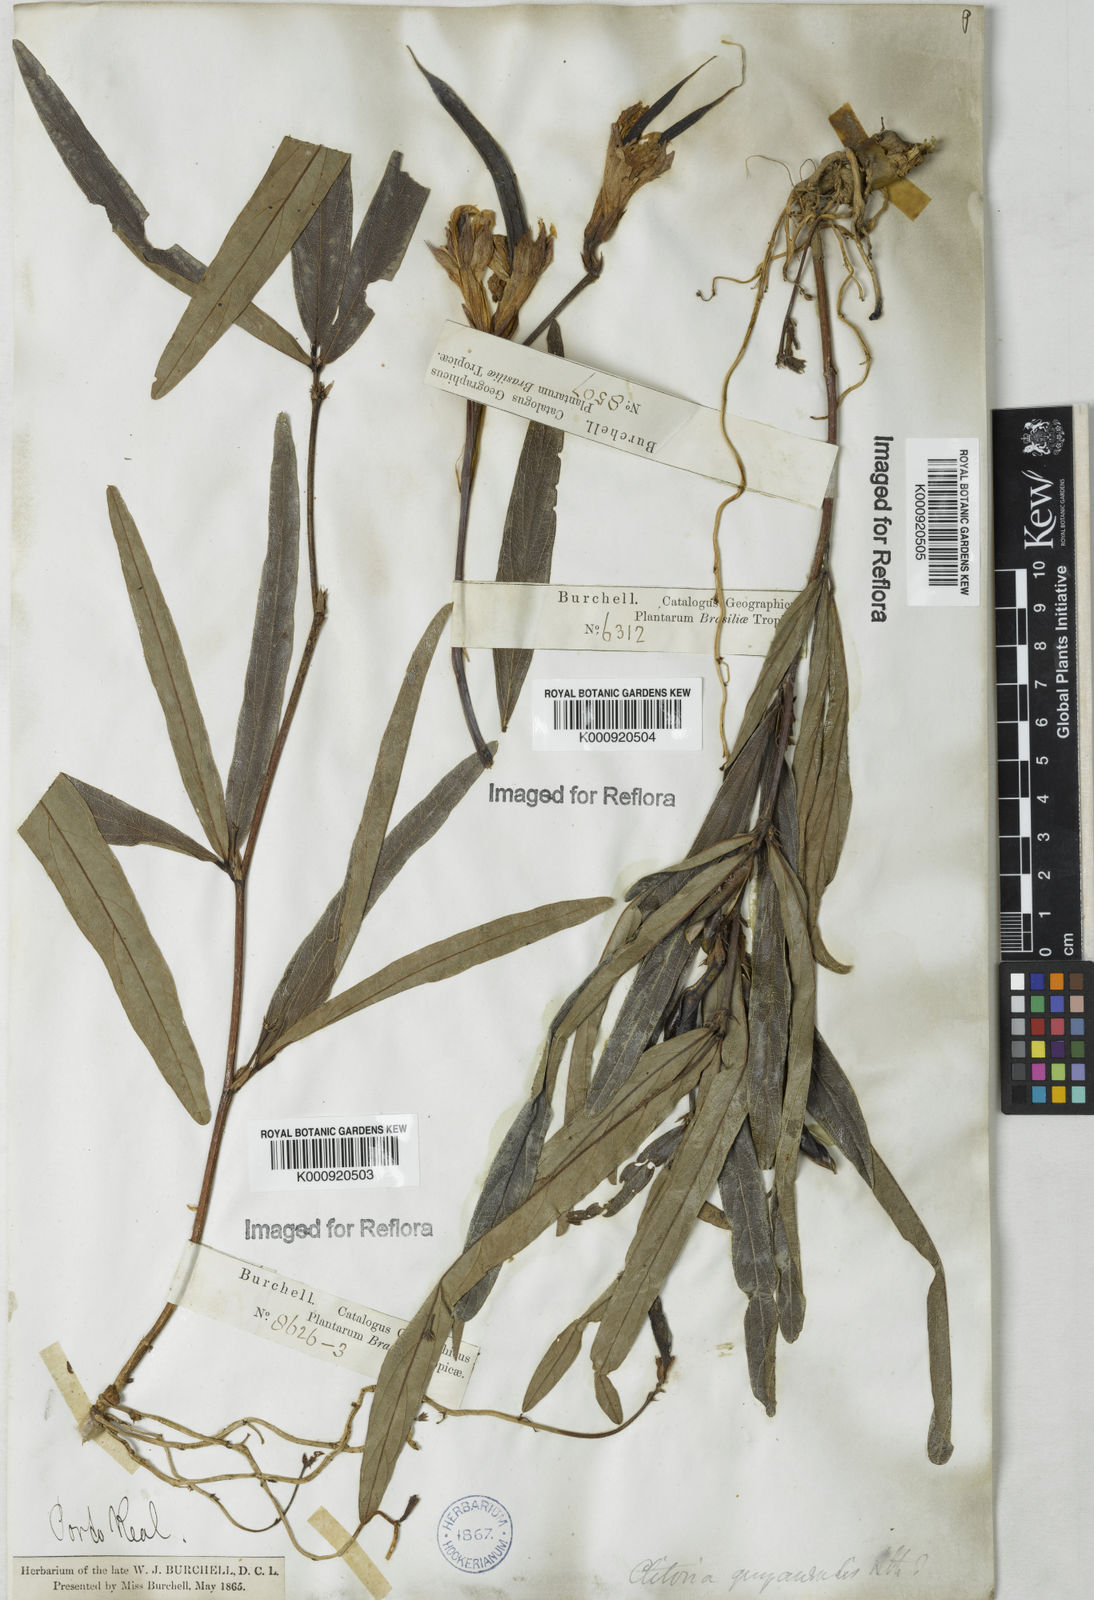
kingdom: Plantae
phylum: Tracheophyta
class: Magnoliopsida
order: Fabales
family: Fabaceae
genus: Clitoria
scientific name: Clitoria guianensis
